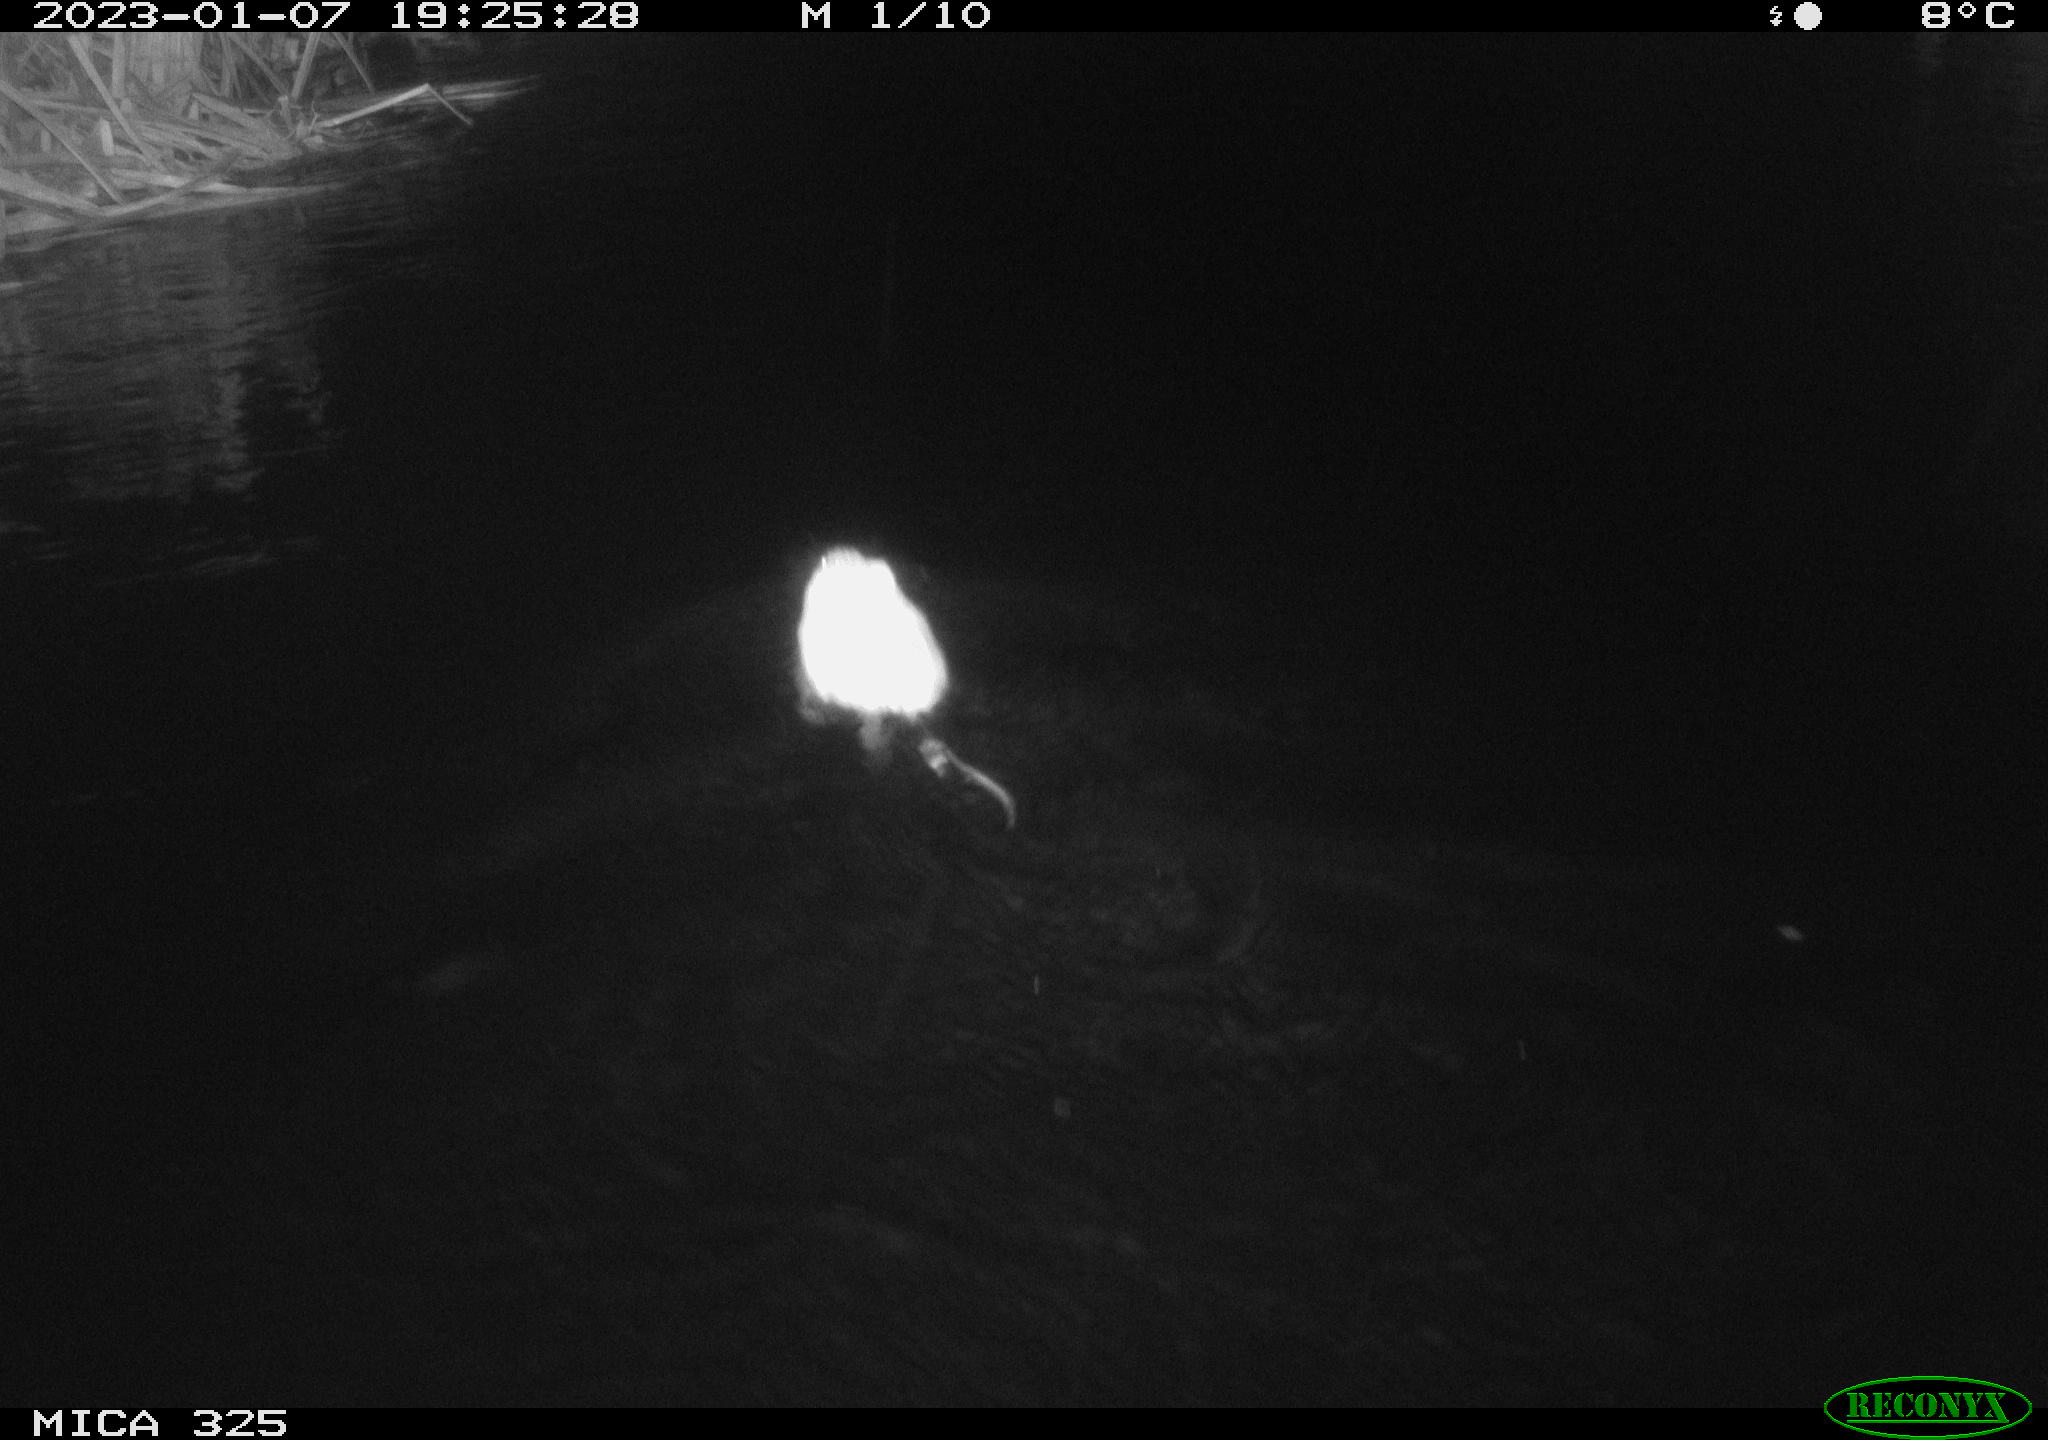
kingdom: Animalia
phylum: Chordata
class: Mammalia
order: Rodentia
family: Cricetidae
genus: Ondatra
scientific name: Ondatra zibethicus
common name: Muskrat
